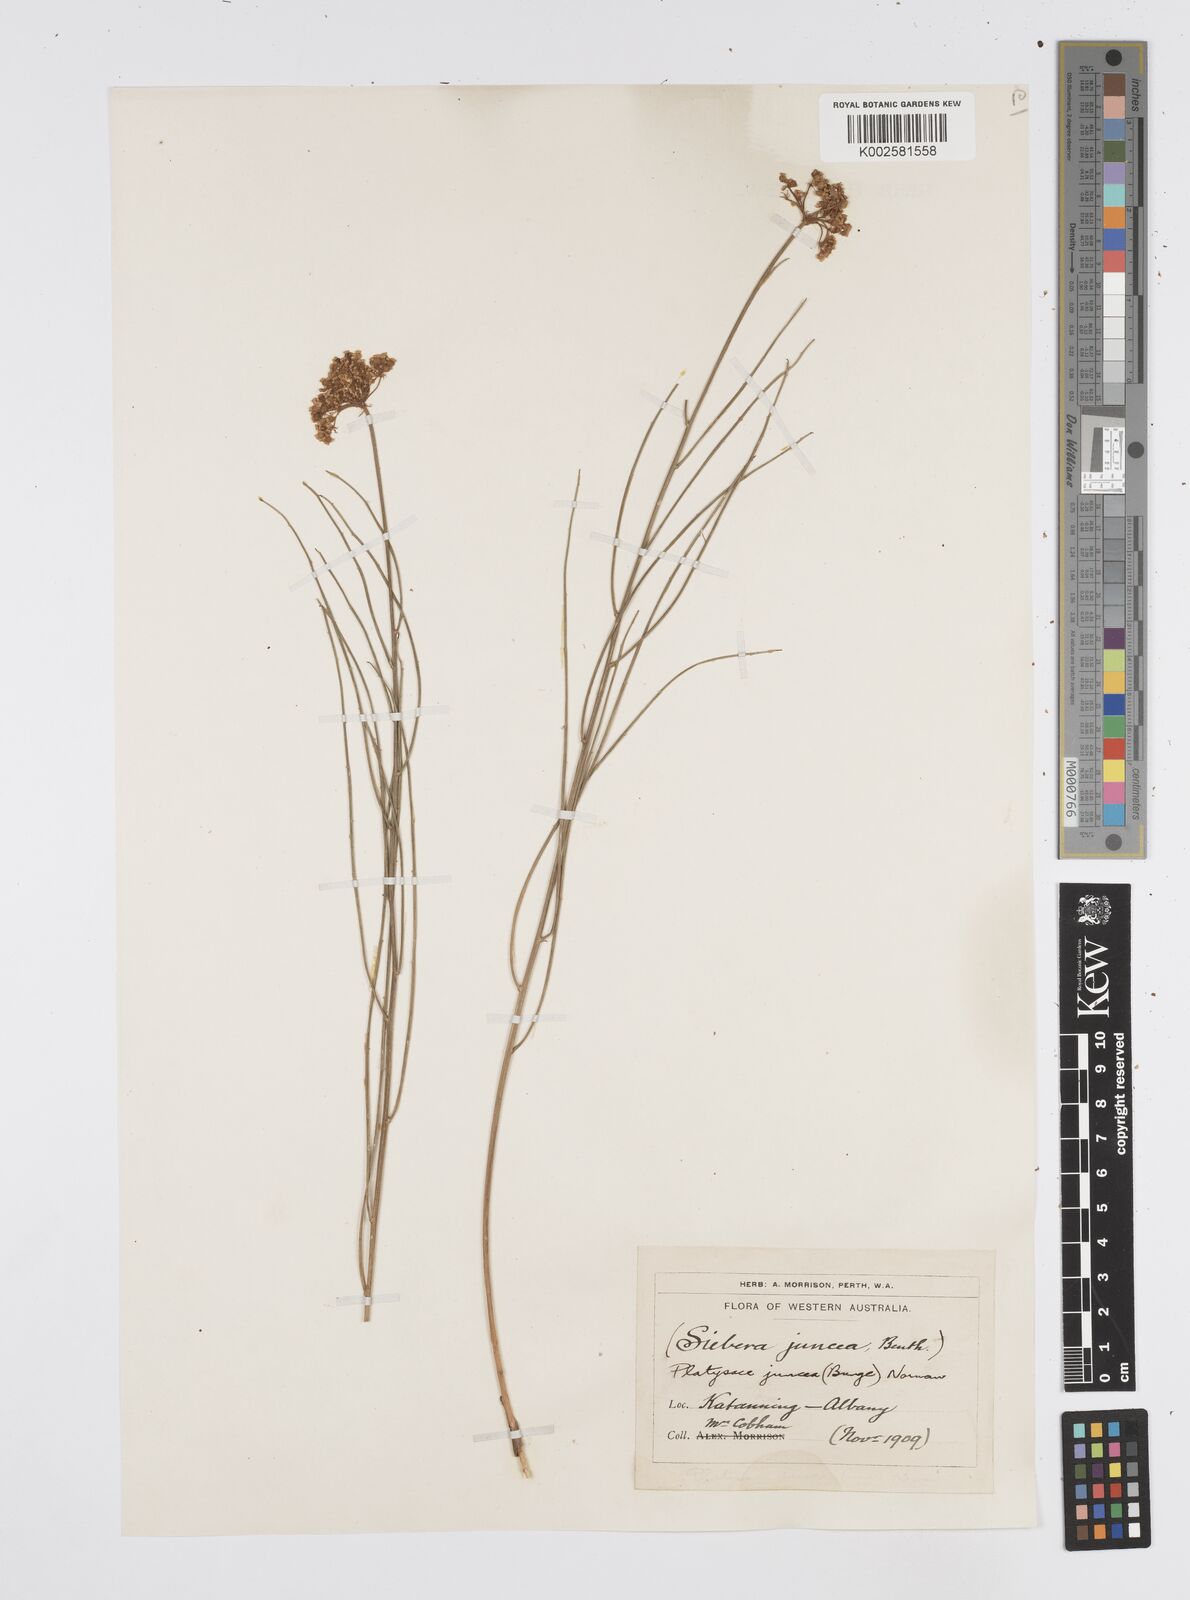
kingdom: Plantae
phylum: Tracheophyta
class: Magnoliopsida
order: Apiales
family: Apiaceae
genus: Platysace
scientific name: Platysace juncea
